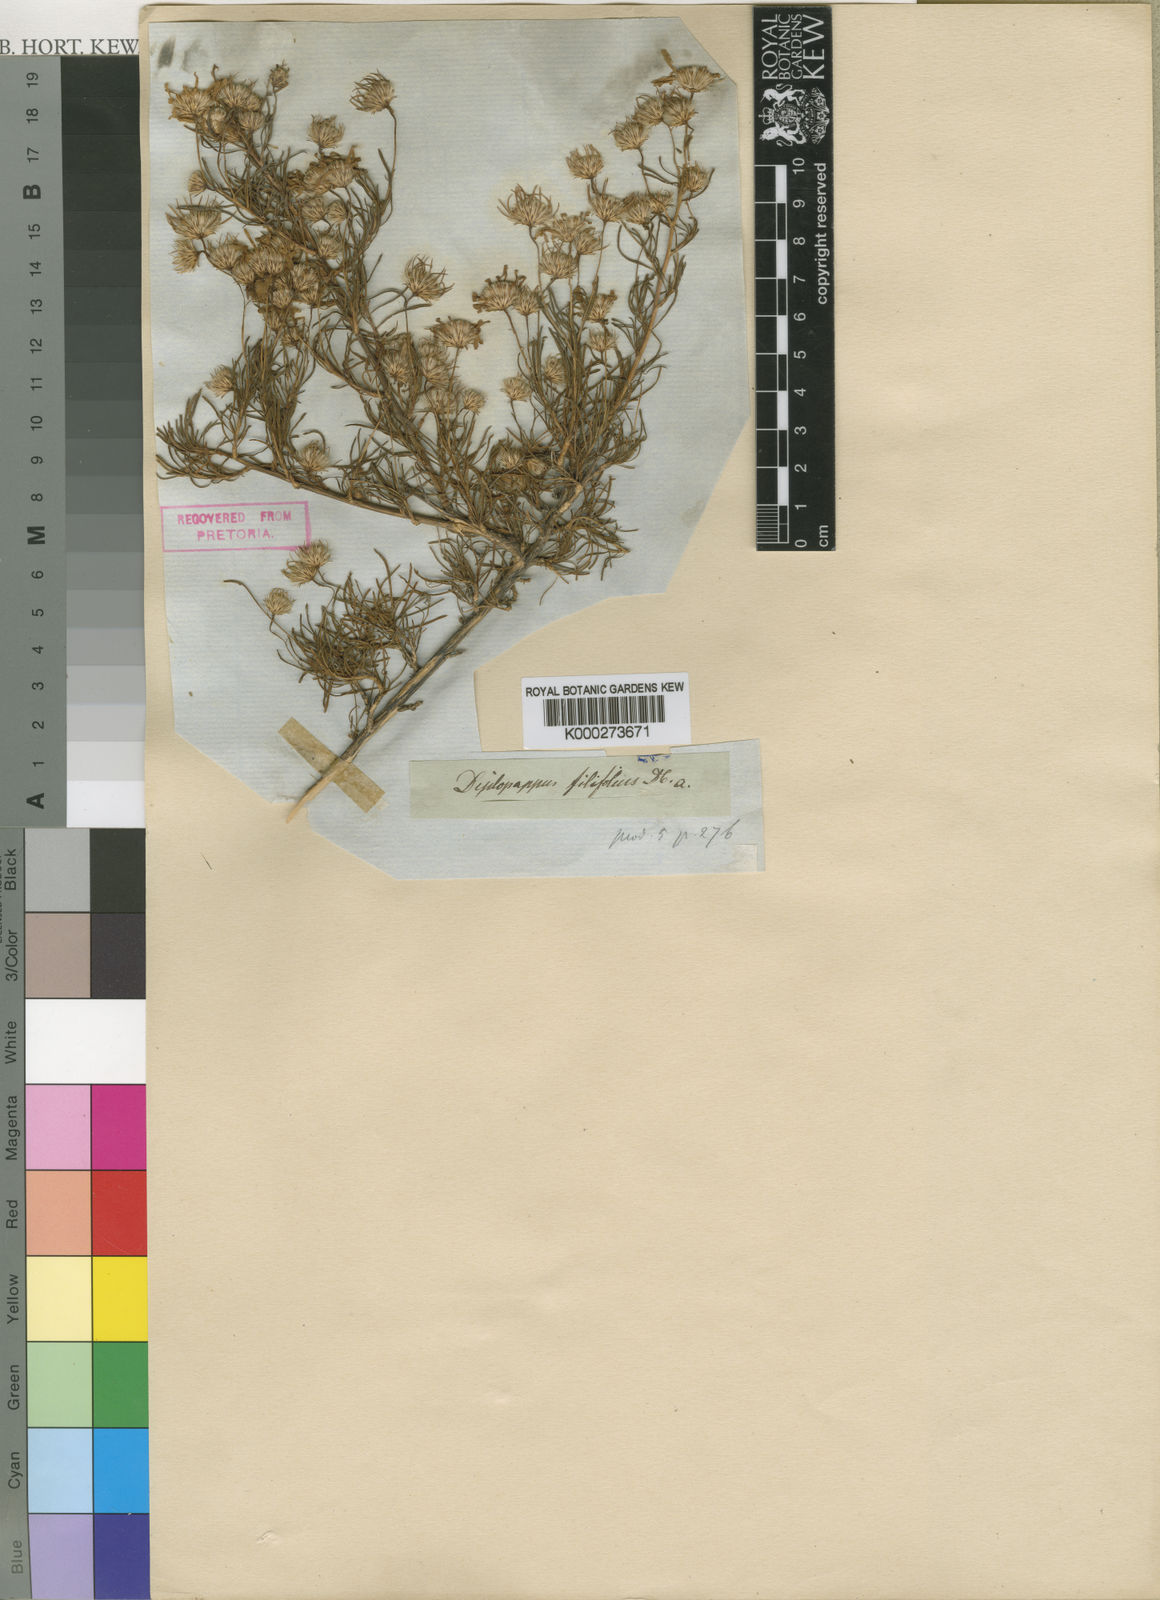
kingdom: Plantae
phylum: Tracheophyta
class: Magnoliopsida
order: Asterales
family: Asteraceae
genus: Felicia
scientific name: Felicia filifolia
